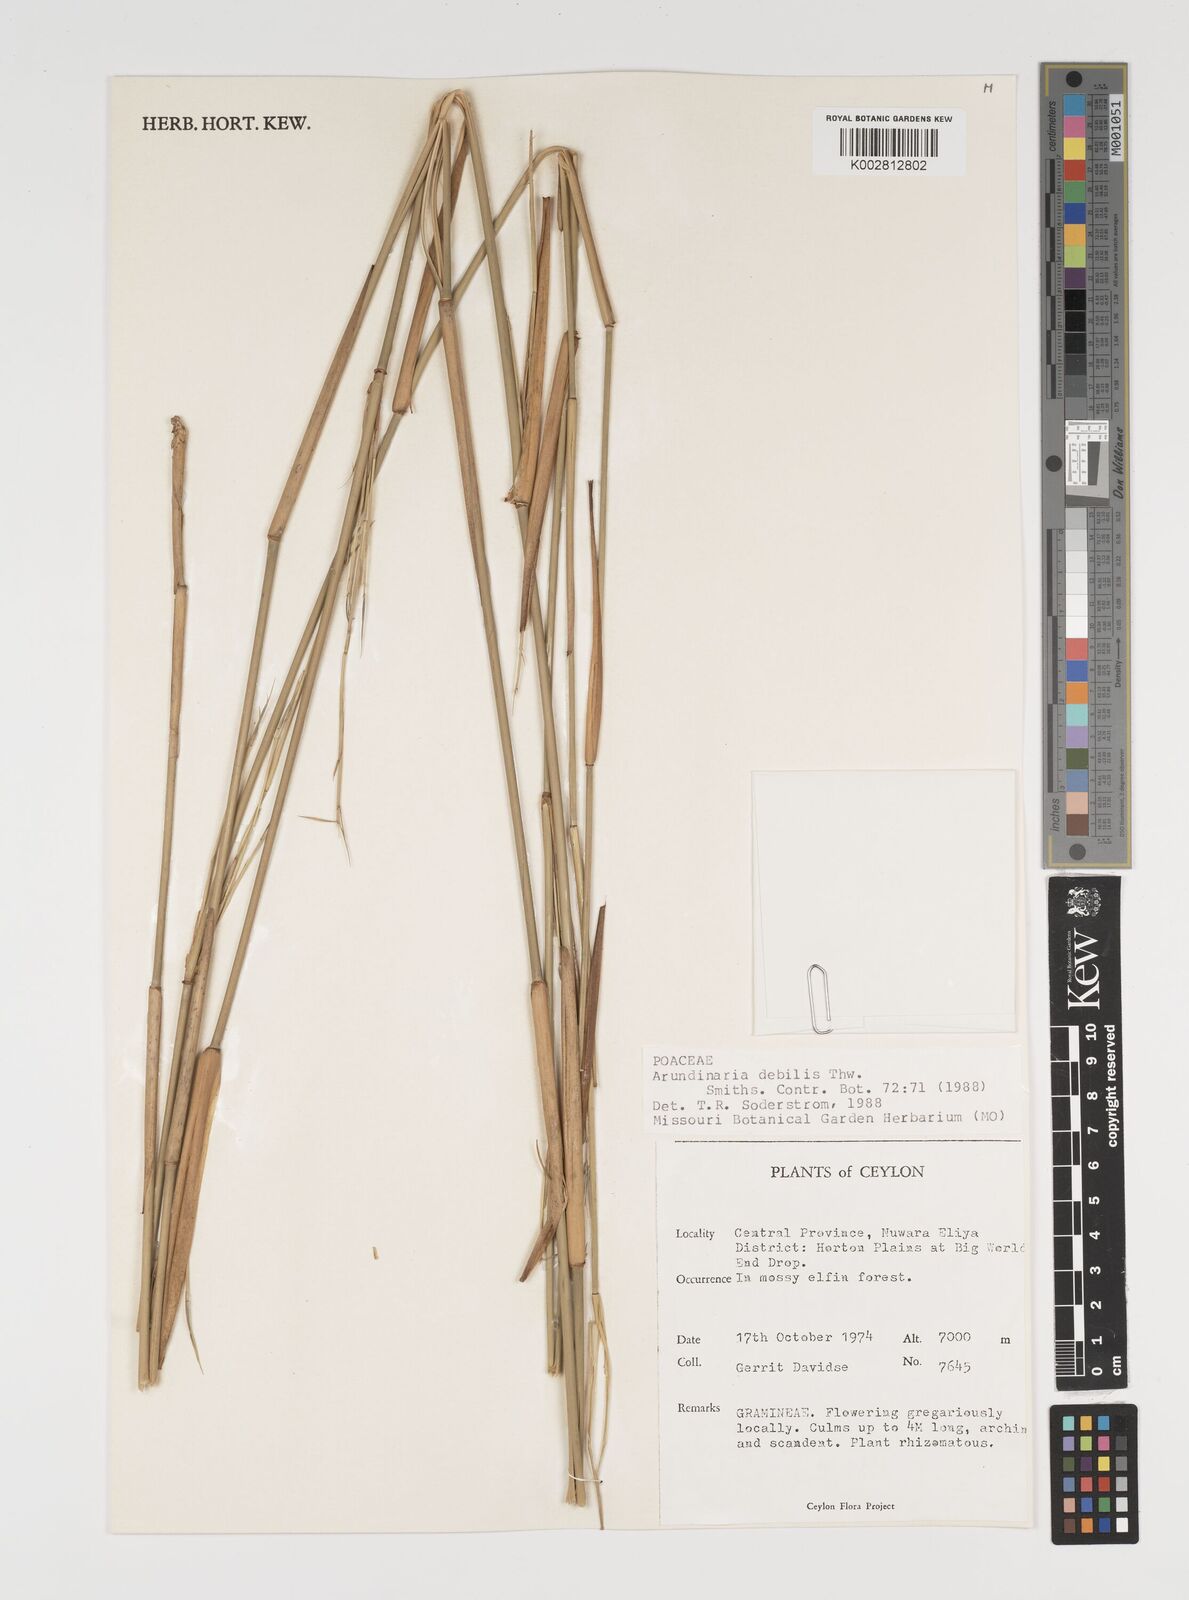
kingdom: Plantae
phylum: Tracheophyta
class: Liliopsida
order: Poales
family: Poaceae
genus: Kuruna
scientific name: Kuruna debilis
